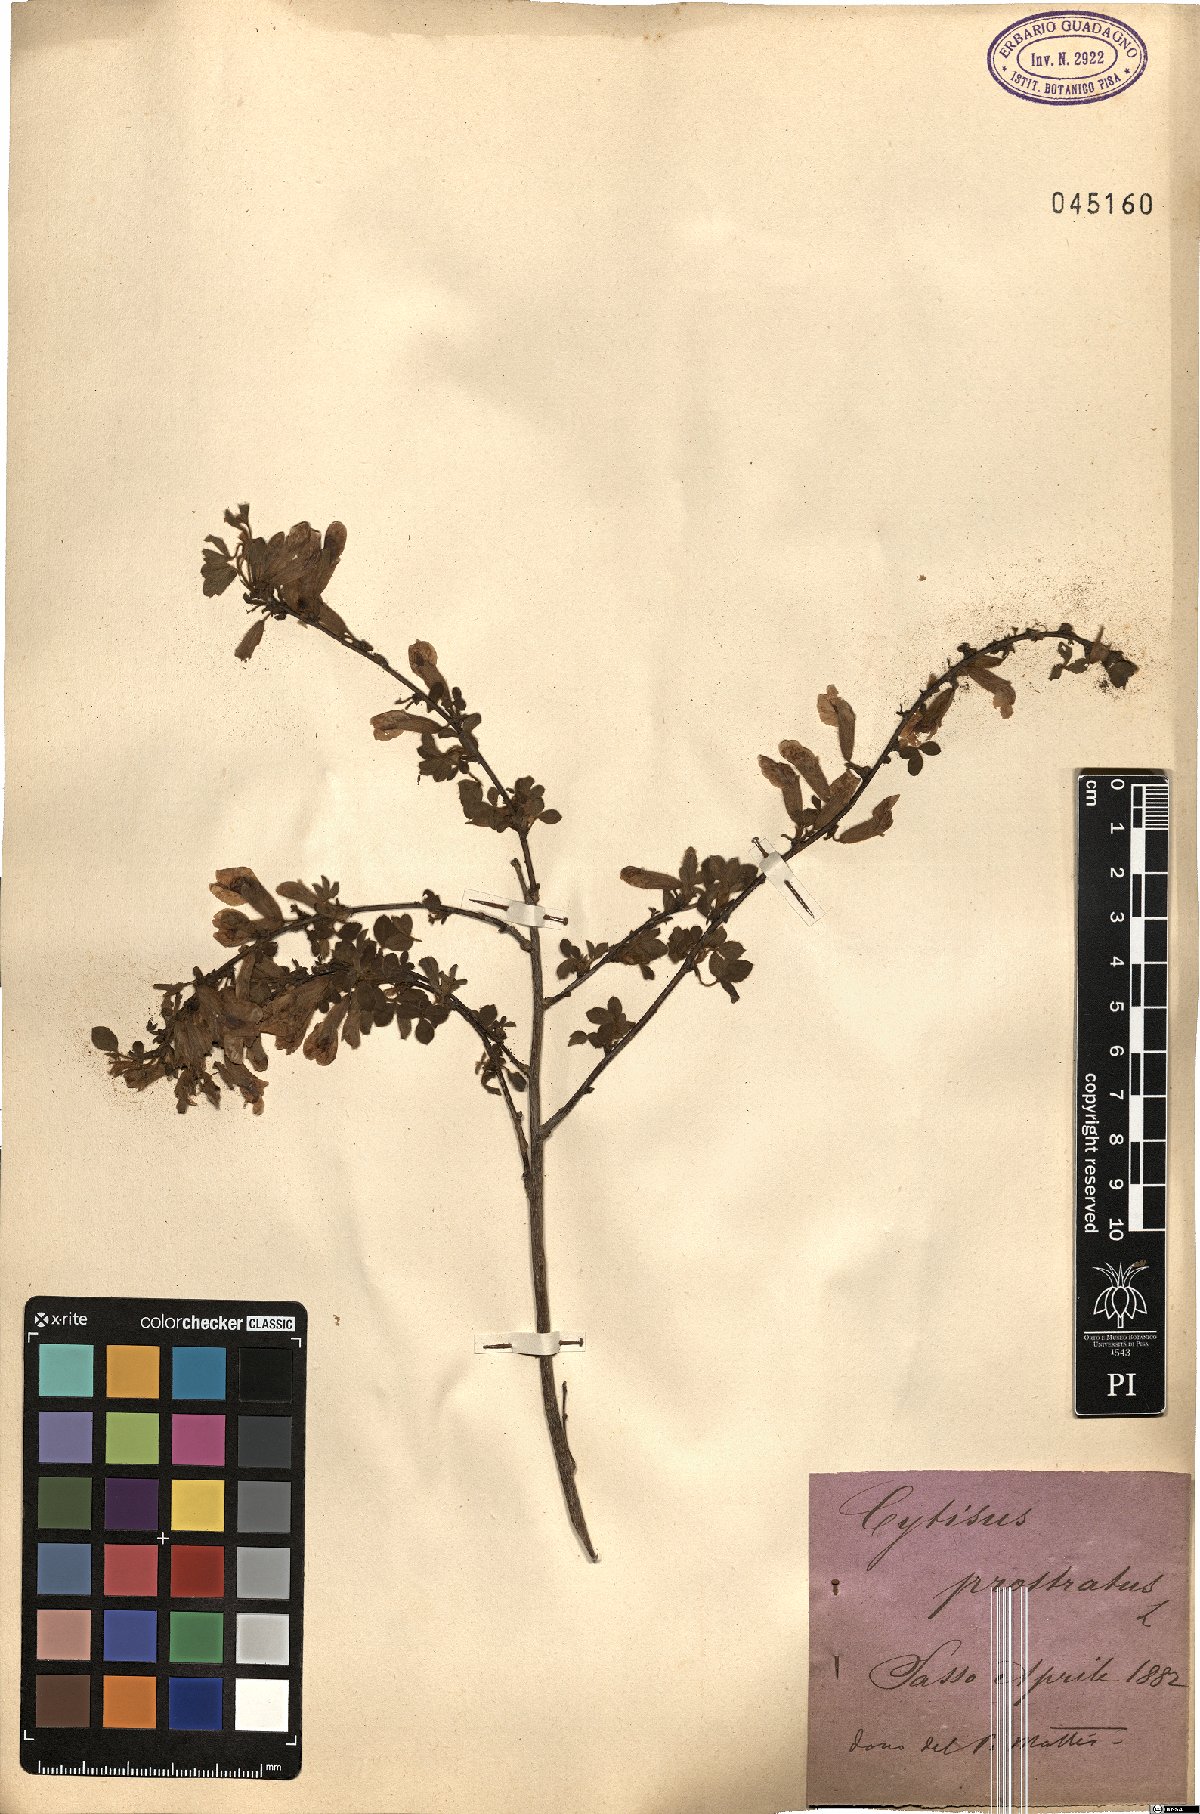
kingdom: Plantae
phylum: Tracheophyta
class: Magnoliopsida
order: Fabales
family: Fabaceae
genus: Cytisus
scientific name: Cytisus decumbens
